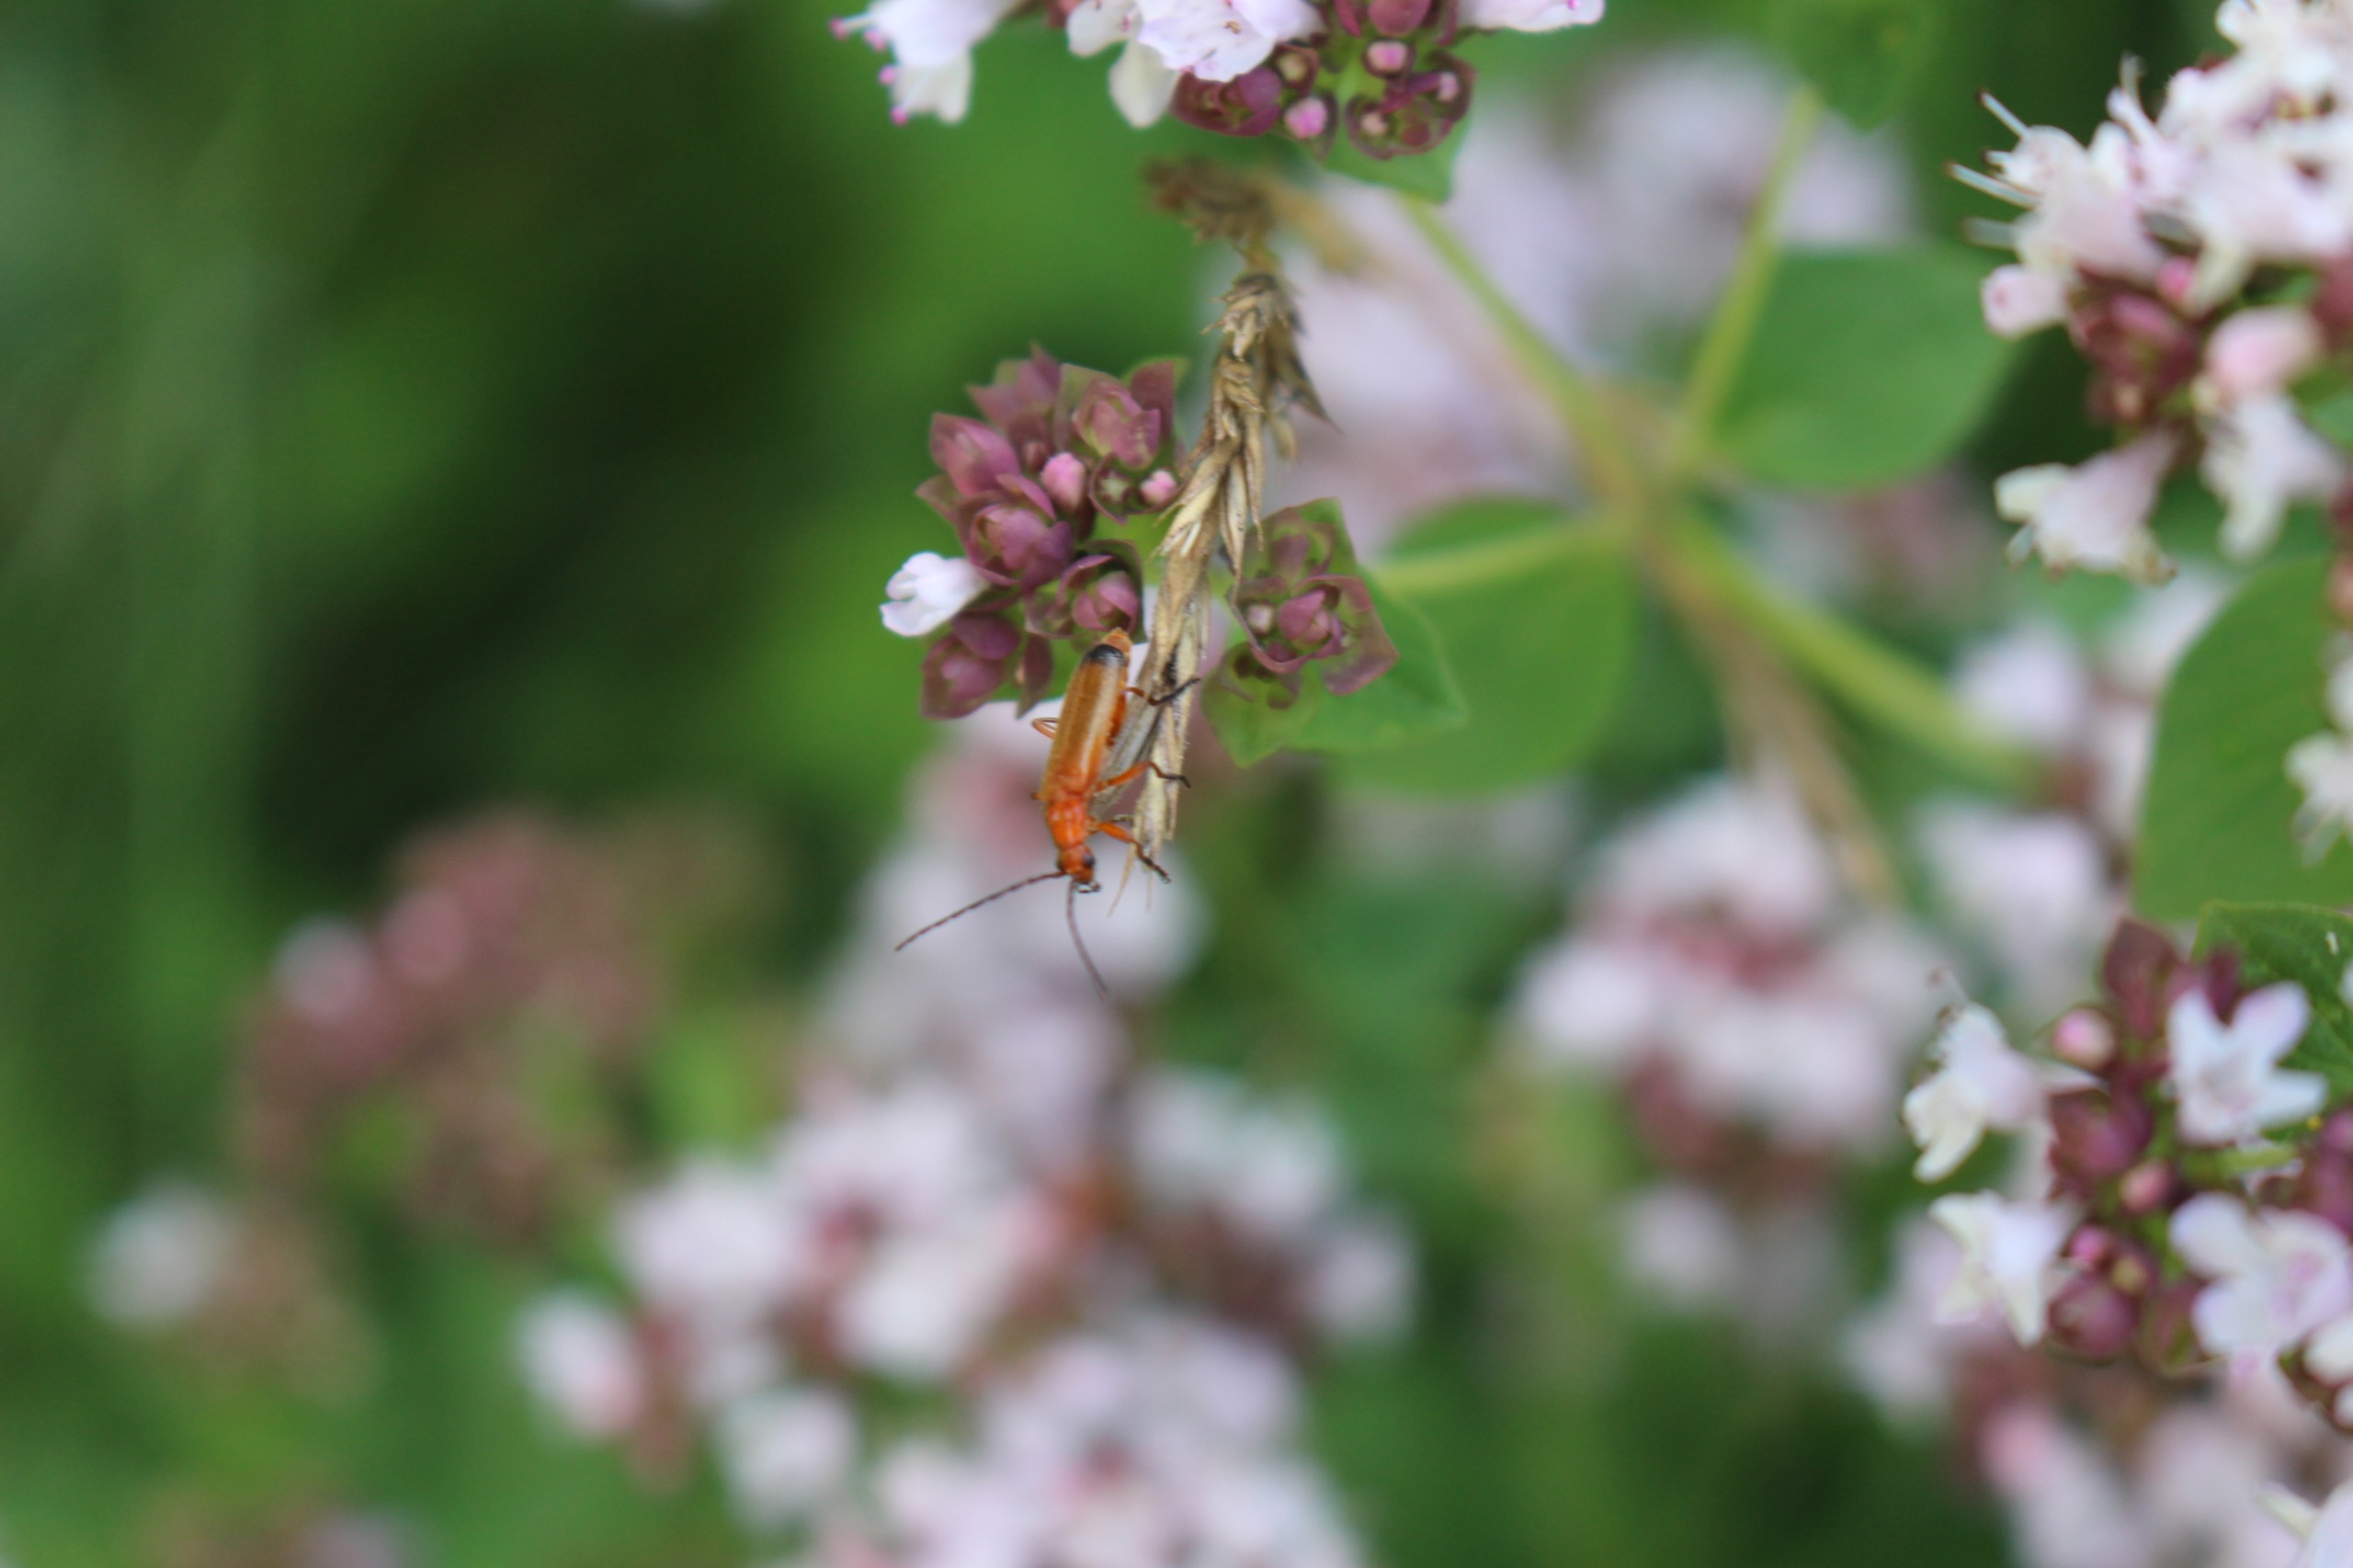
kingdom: Animalia
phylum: Arthropoda
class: Insecta
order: Coleoptera
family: Cantharidae
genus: Rhagonycha
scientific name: Rhagonycha fulva
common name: Præstebille
